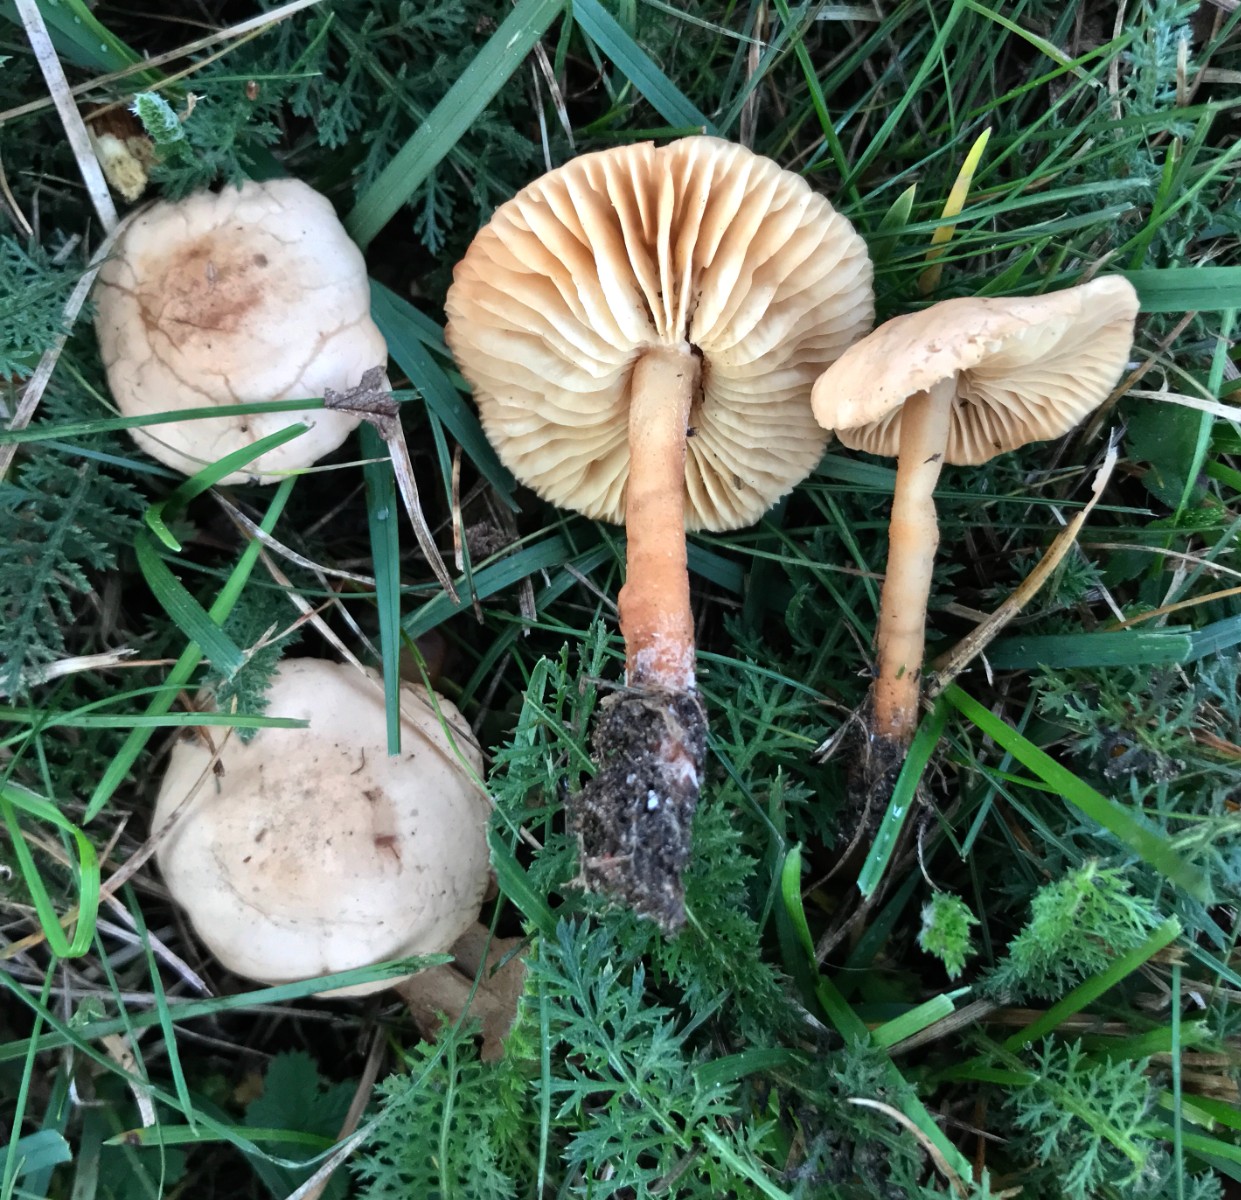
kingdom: Fungi
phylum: Basidiomycota
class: Agaricomycetes
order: Agaricales
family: Marasmiaceae
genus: Marasmius
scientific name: Marasmius oreades
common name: elledans-bruskhat
